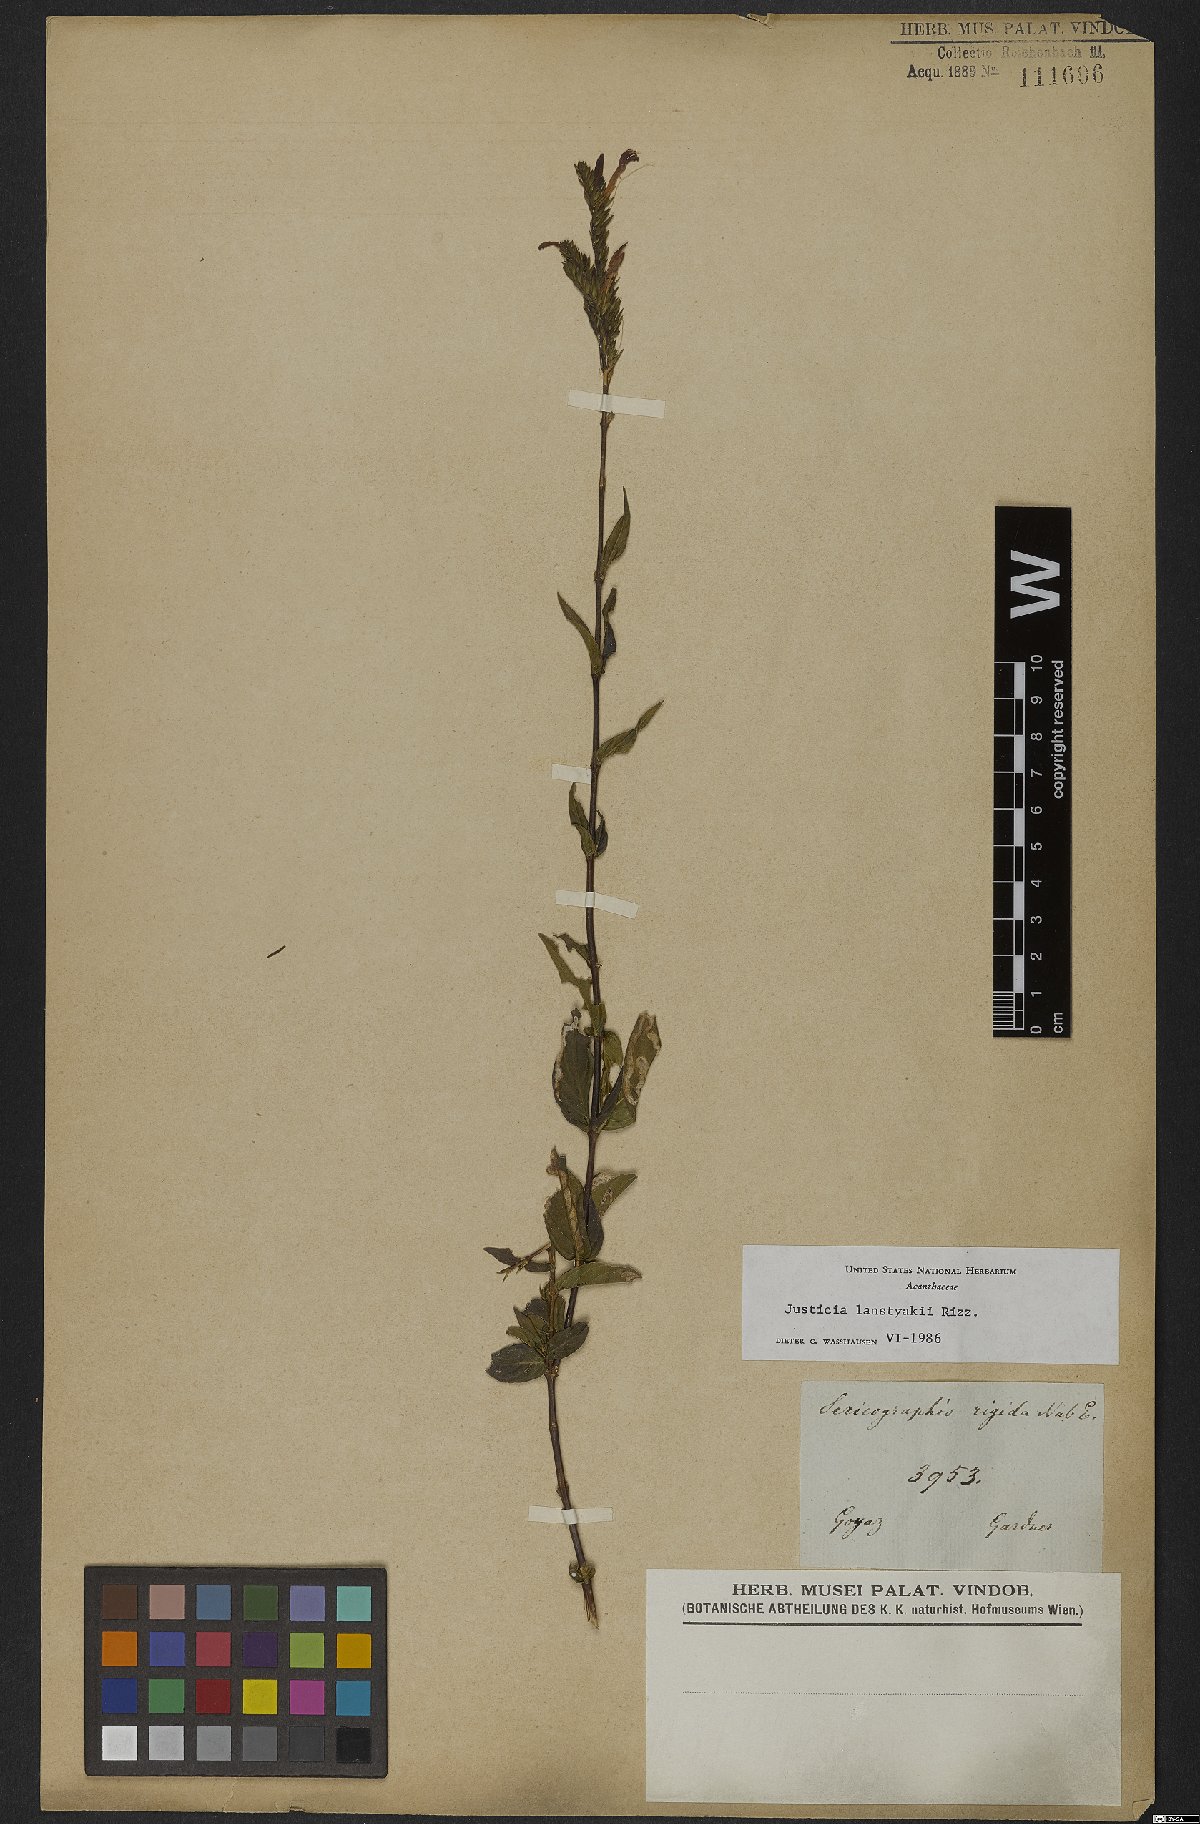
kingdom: Plantae
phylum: Tracheophyta
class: Magnoliopsida
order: Lamiales
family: Acanthaceae
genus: Justicia
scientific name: Justicia lanstyakii
